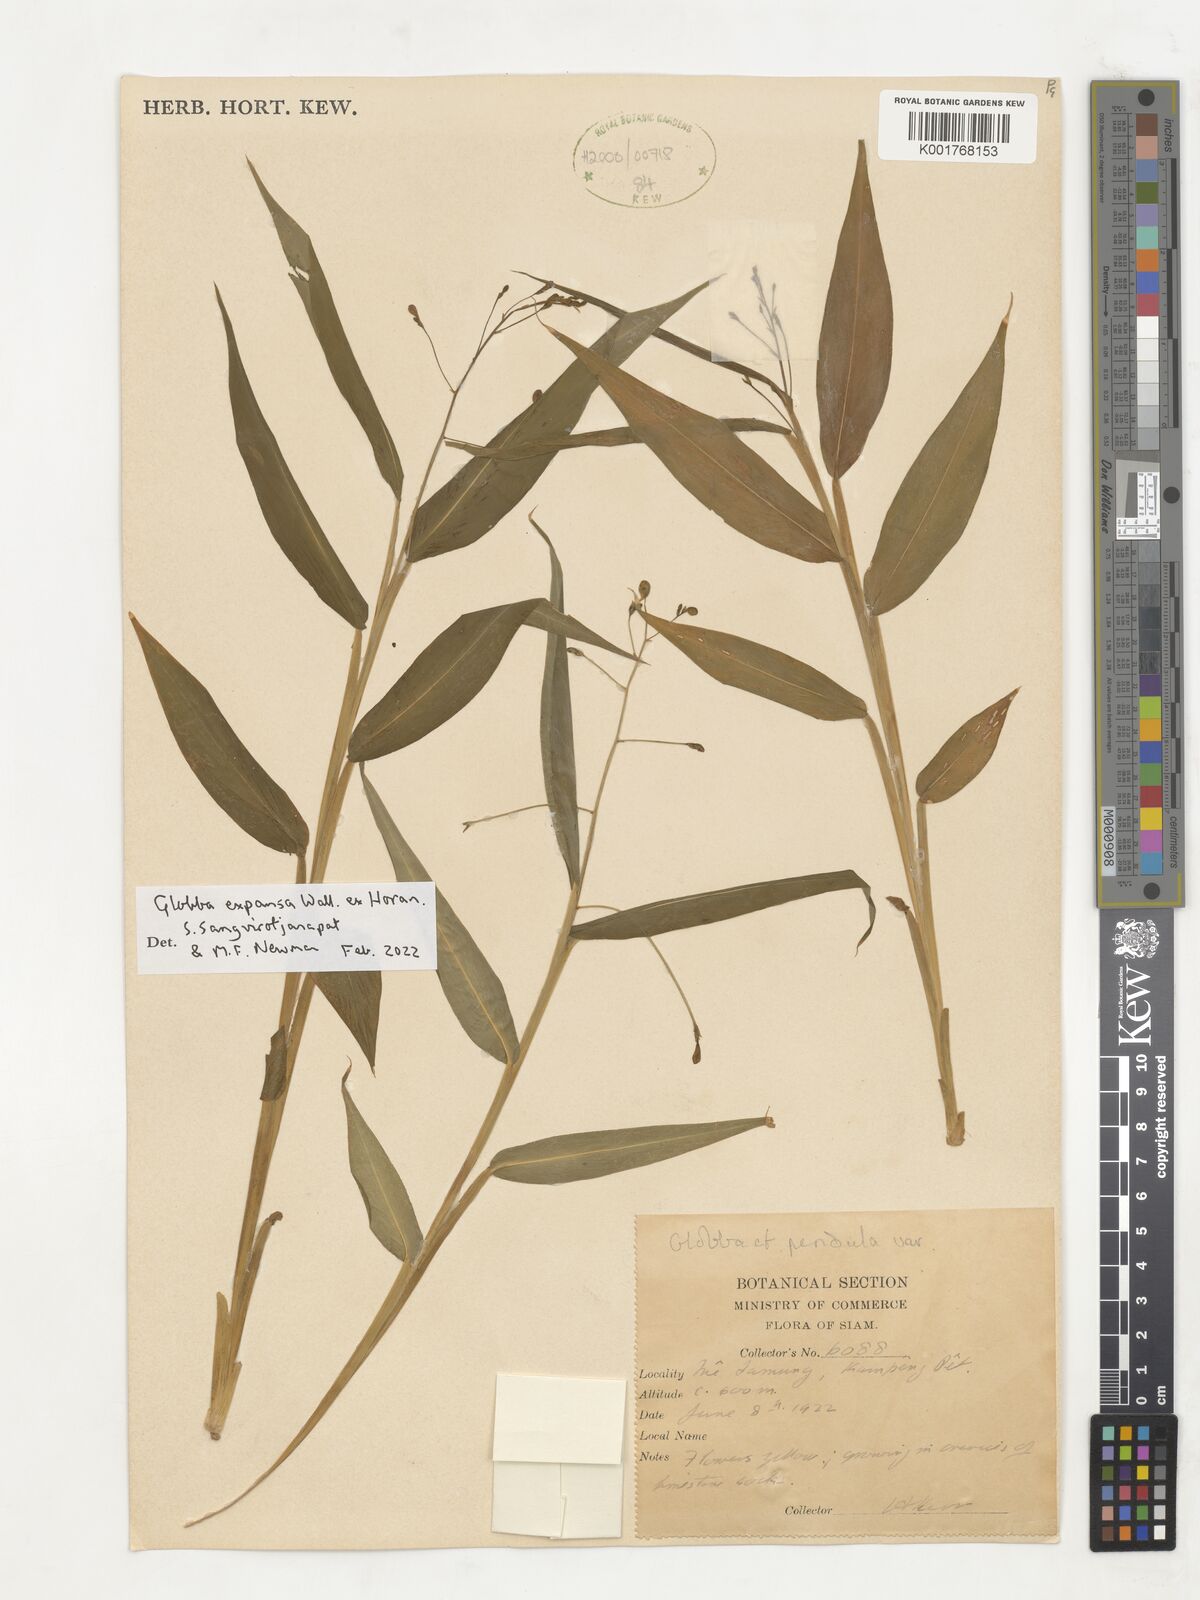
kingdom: Plantae
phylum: Tracheophyta
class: Liliopsida
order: Zingiberales
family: Zingiberaceae
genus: Globba
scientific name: Globba expansa
